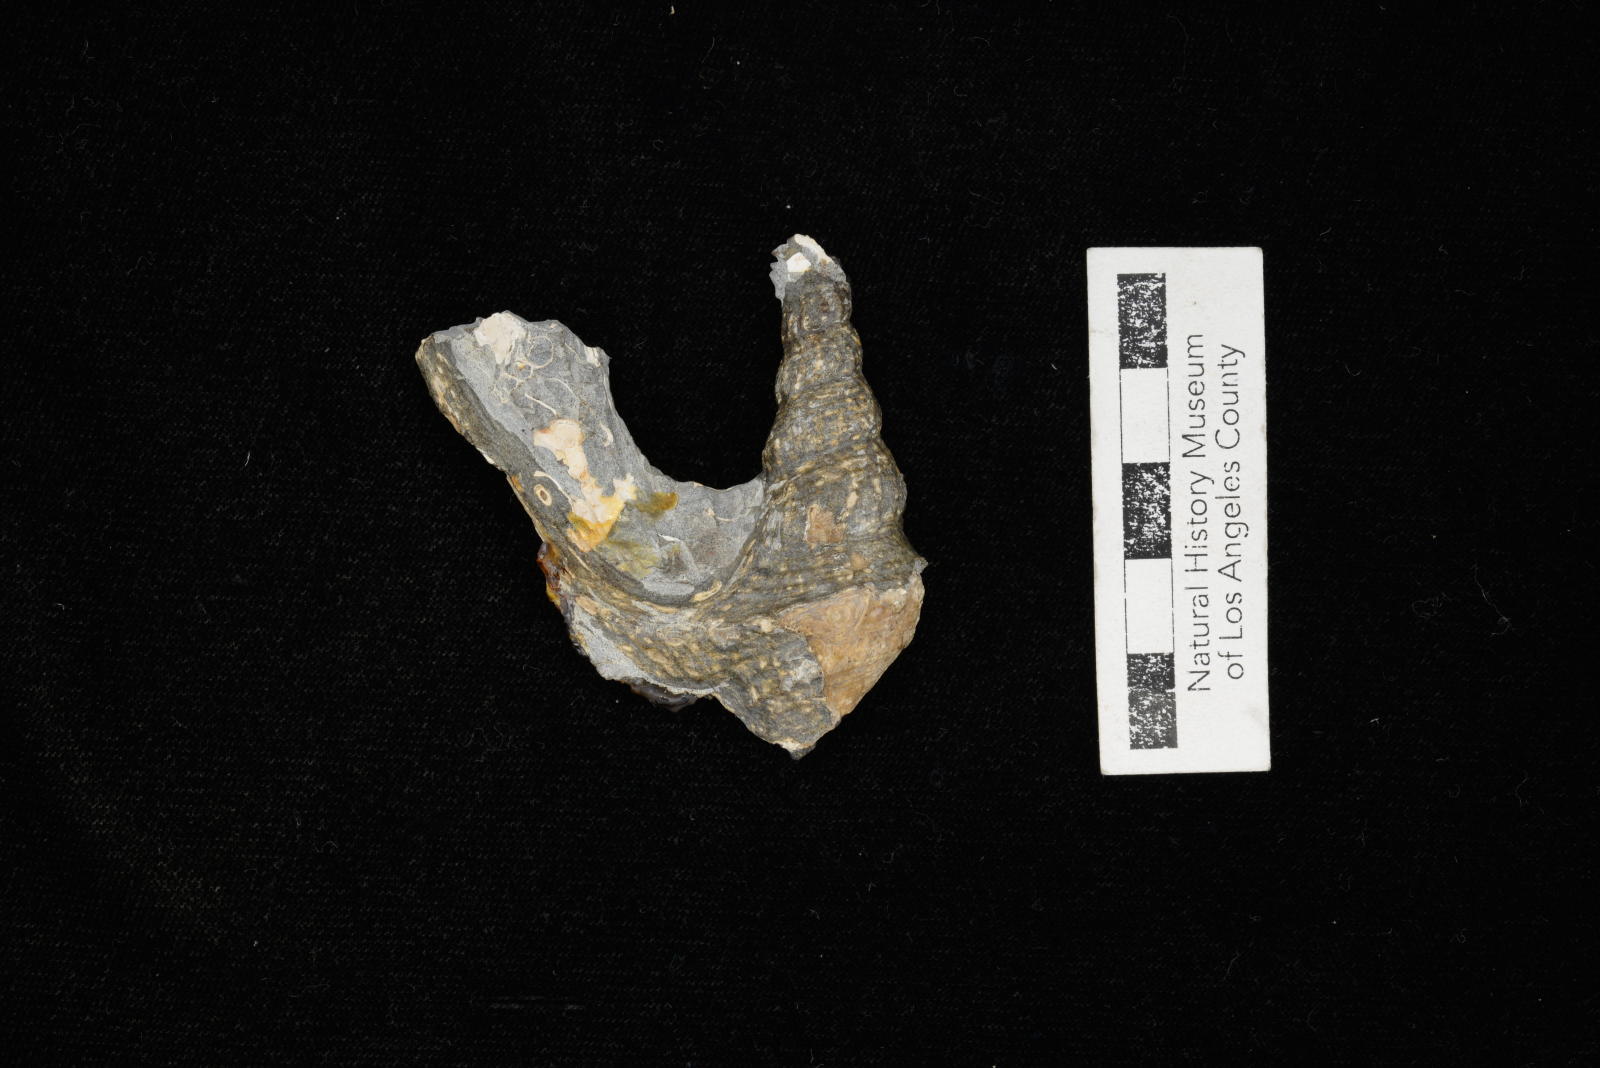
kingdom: Animalia
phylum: Mollusca
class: Gastropoda
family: Metacerithiidae
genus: Cimolithium
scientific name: Cimolithium eleanorae
